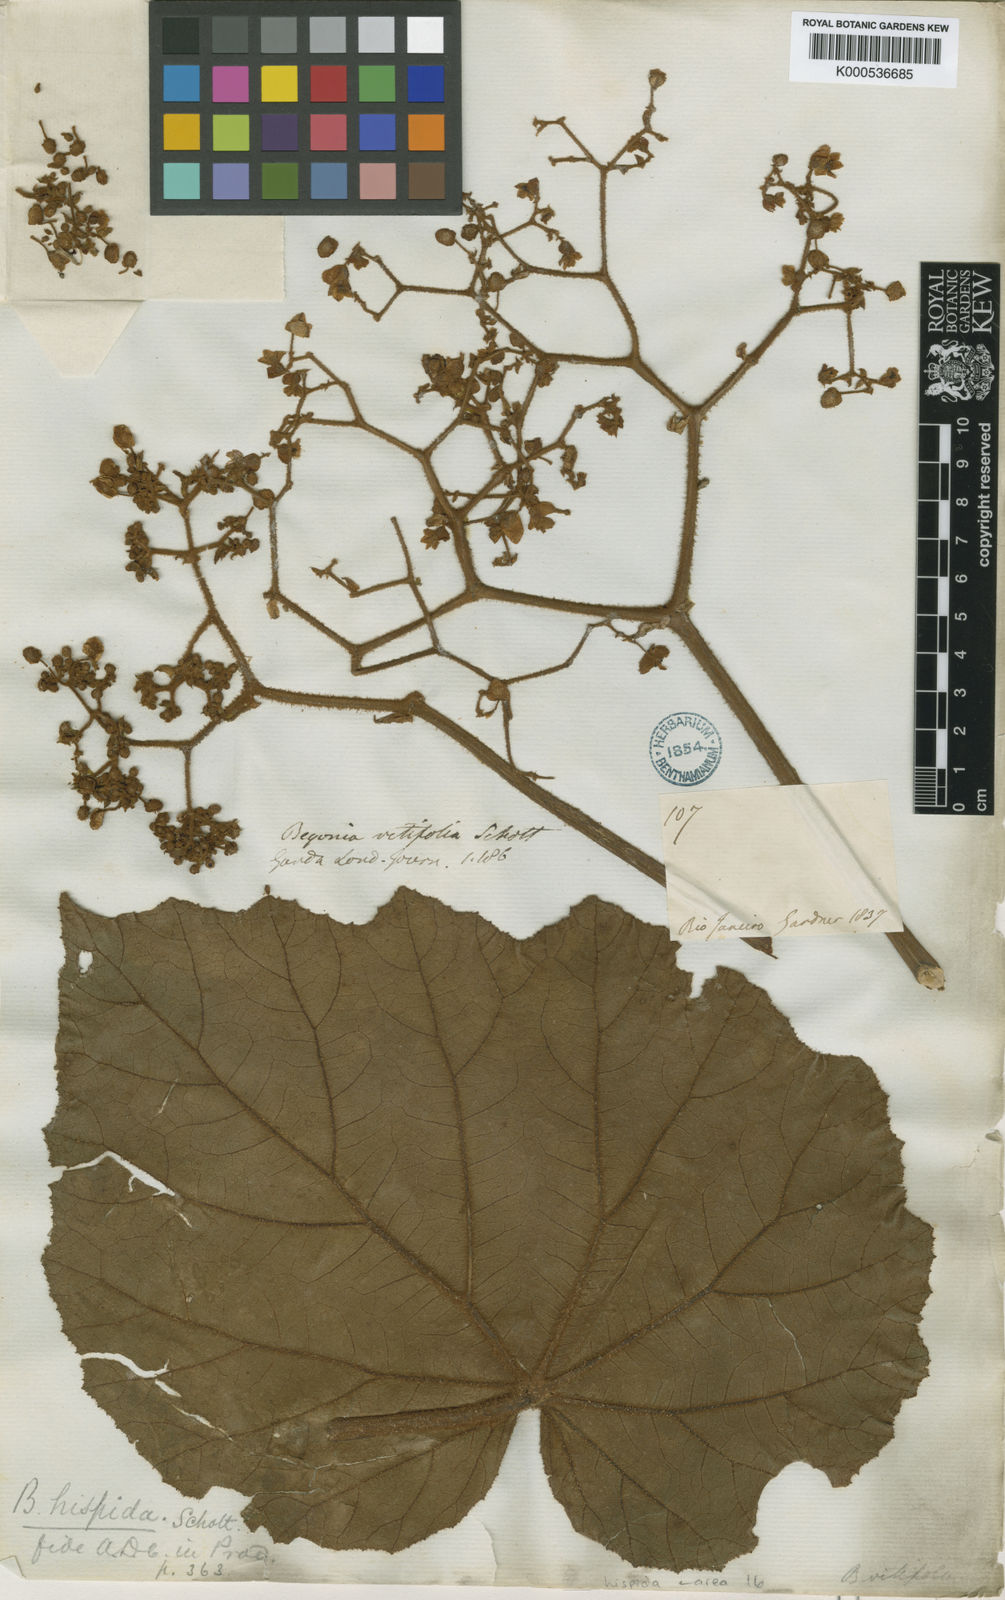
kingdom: Plantae
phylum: Tracheophyta
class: Magnoliopsida
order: Cucurbitales
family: Begoniaceae
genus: Begonia
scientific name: Begonia
